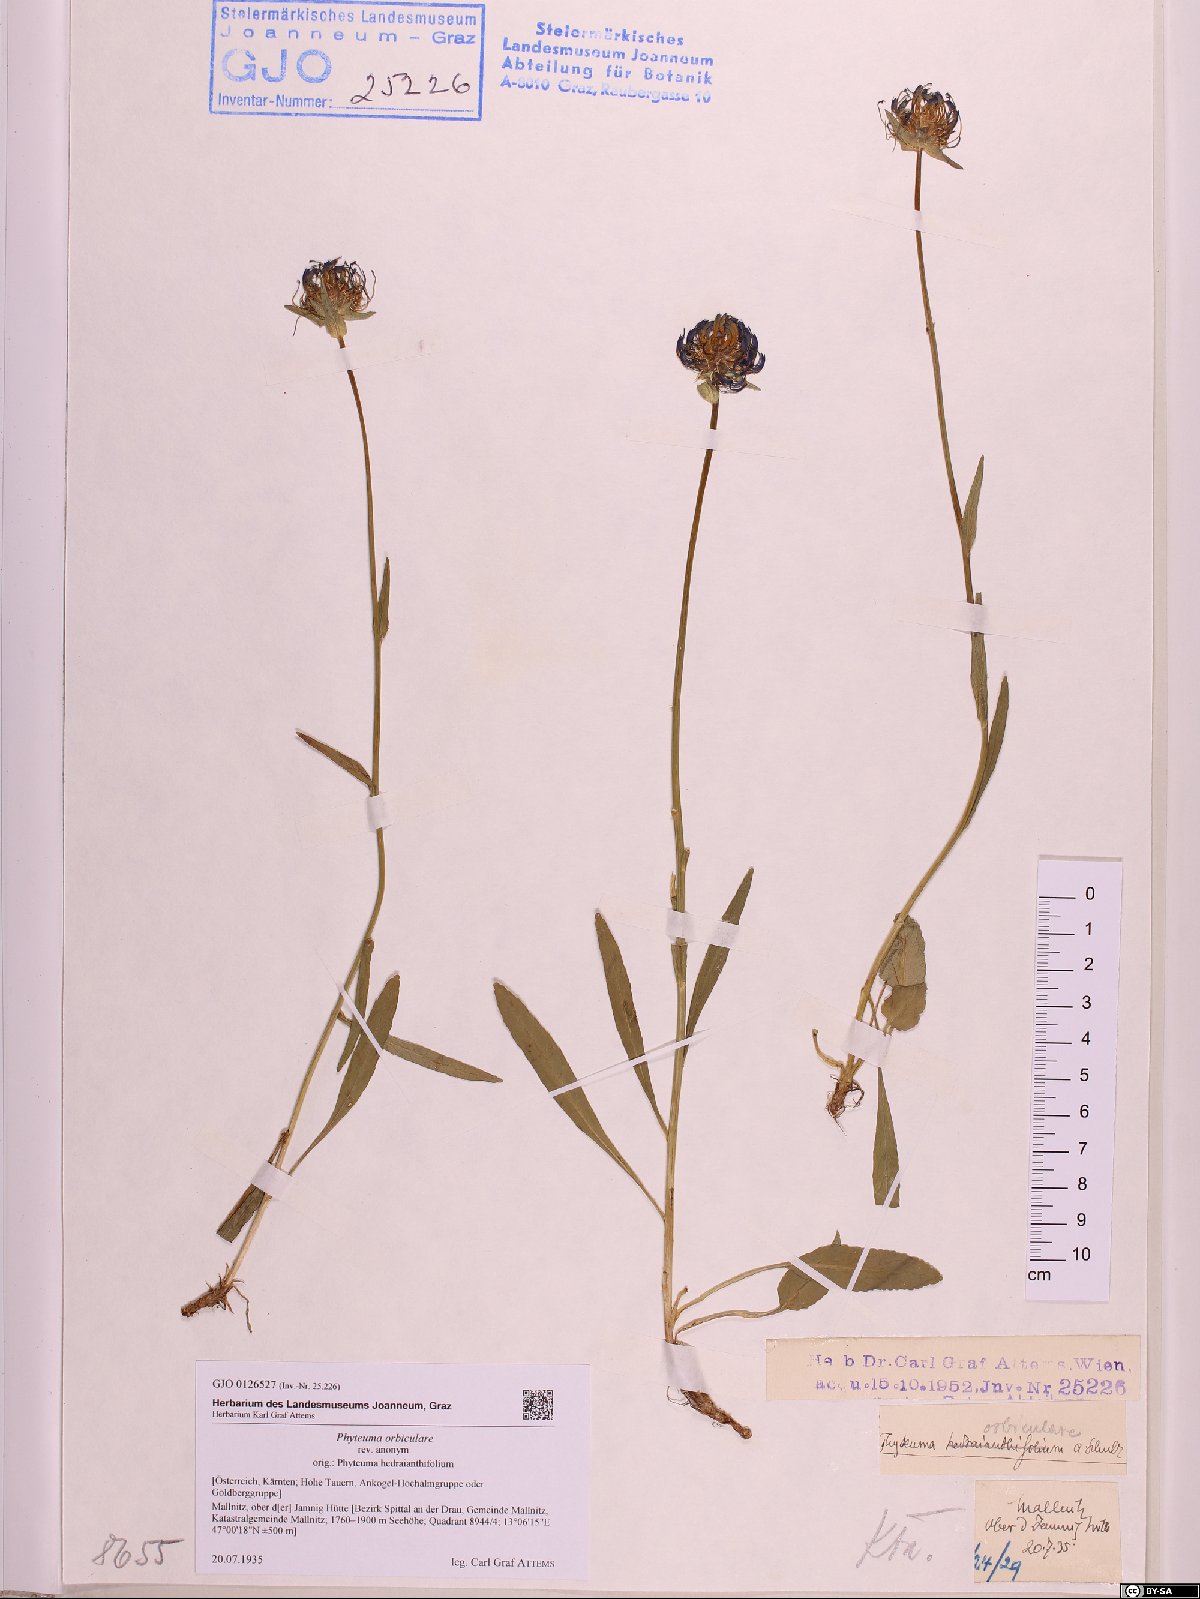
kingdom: Plantae
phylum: Tracheophyta
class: Magnoliopsida
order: Asterales
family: Campanulaceae
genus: Phyteuma
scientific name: Phyteuma orbiculare
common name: Round-headed rampion
